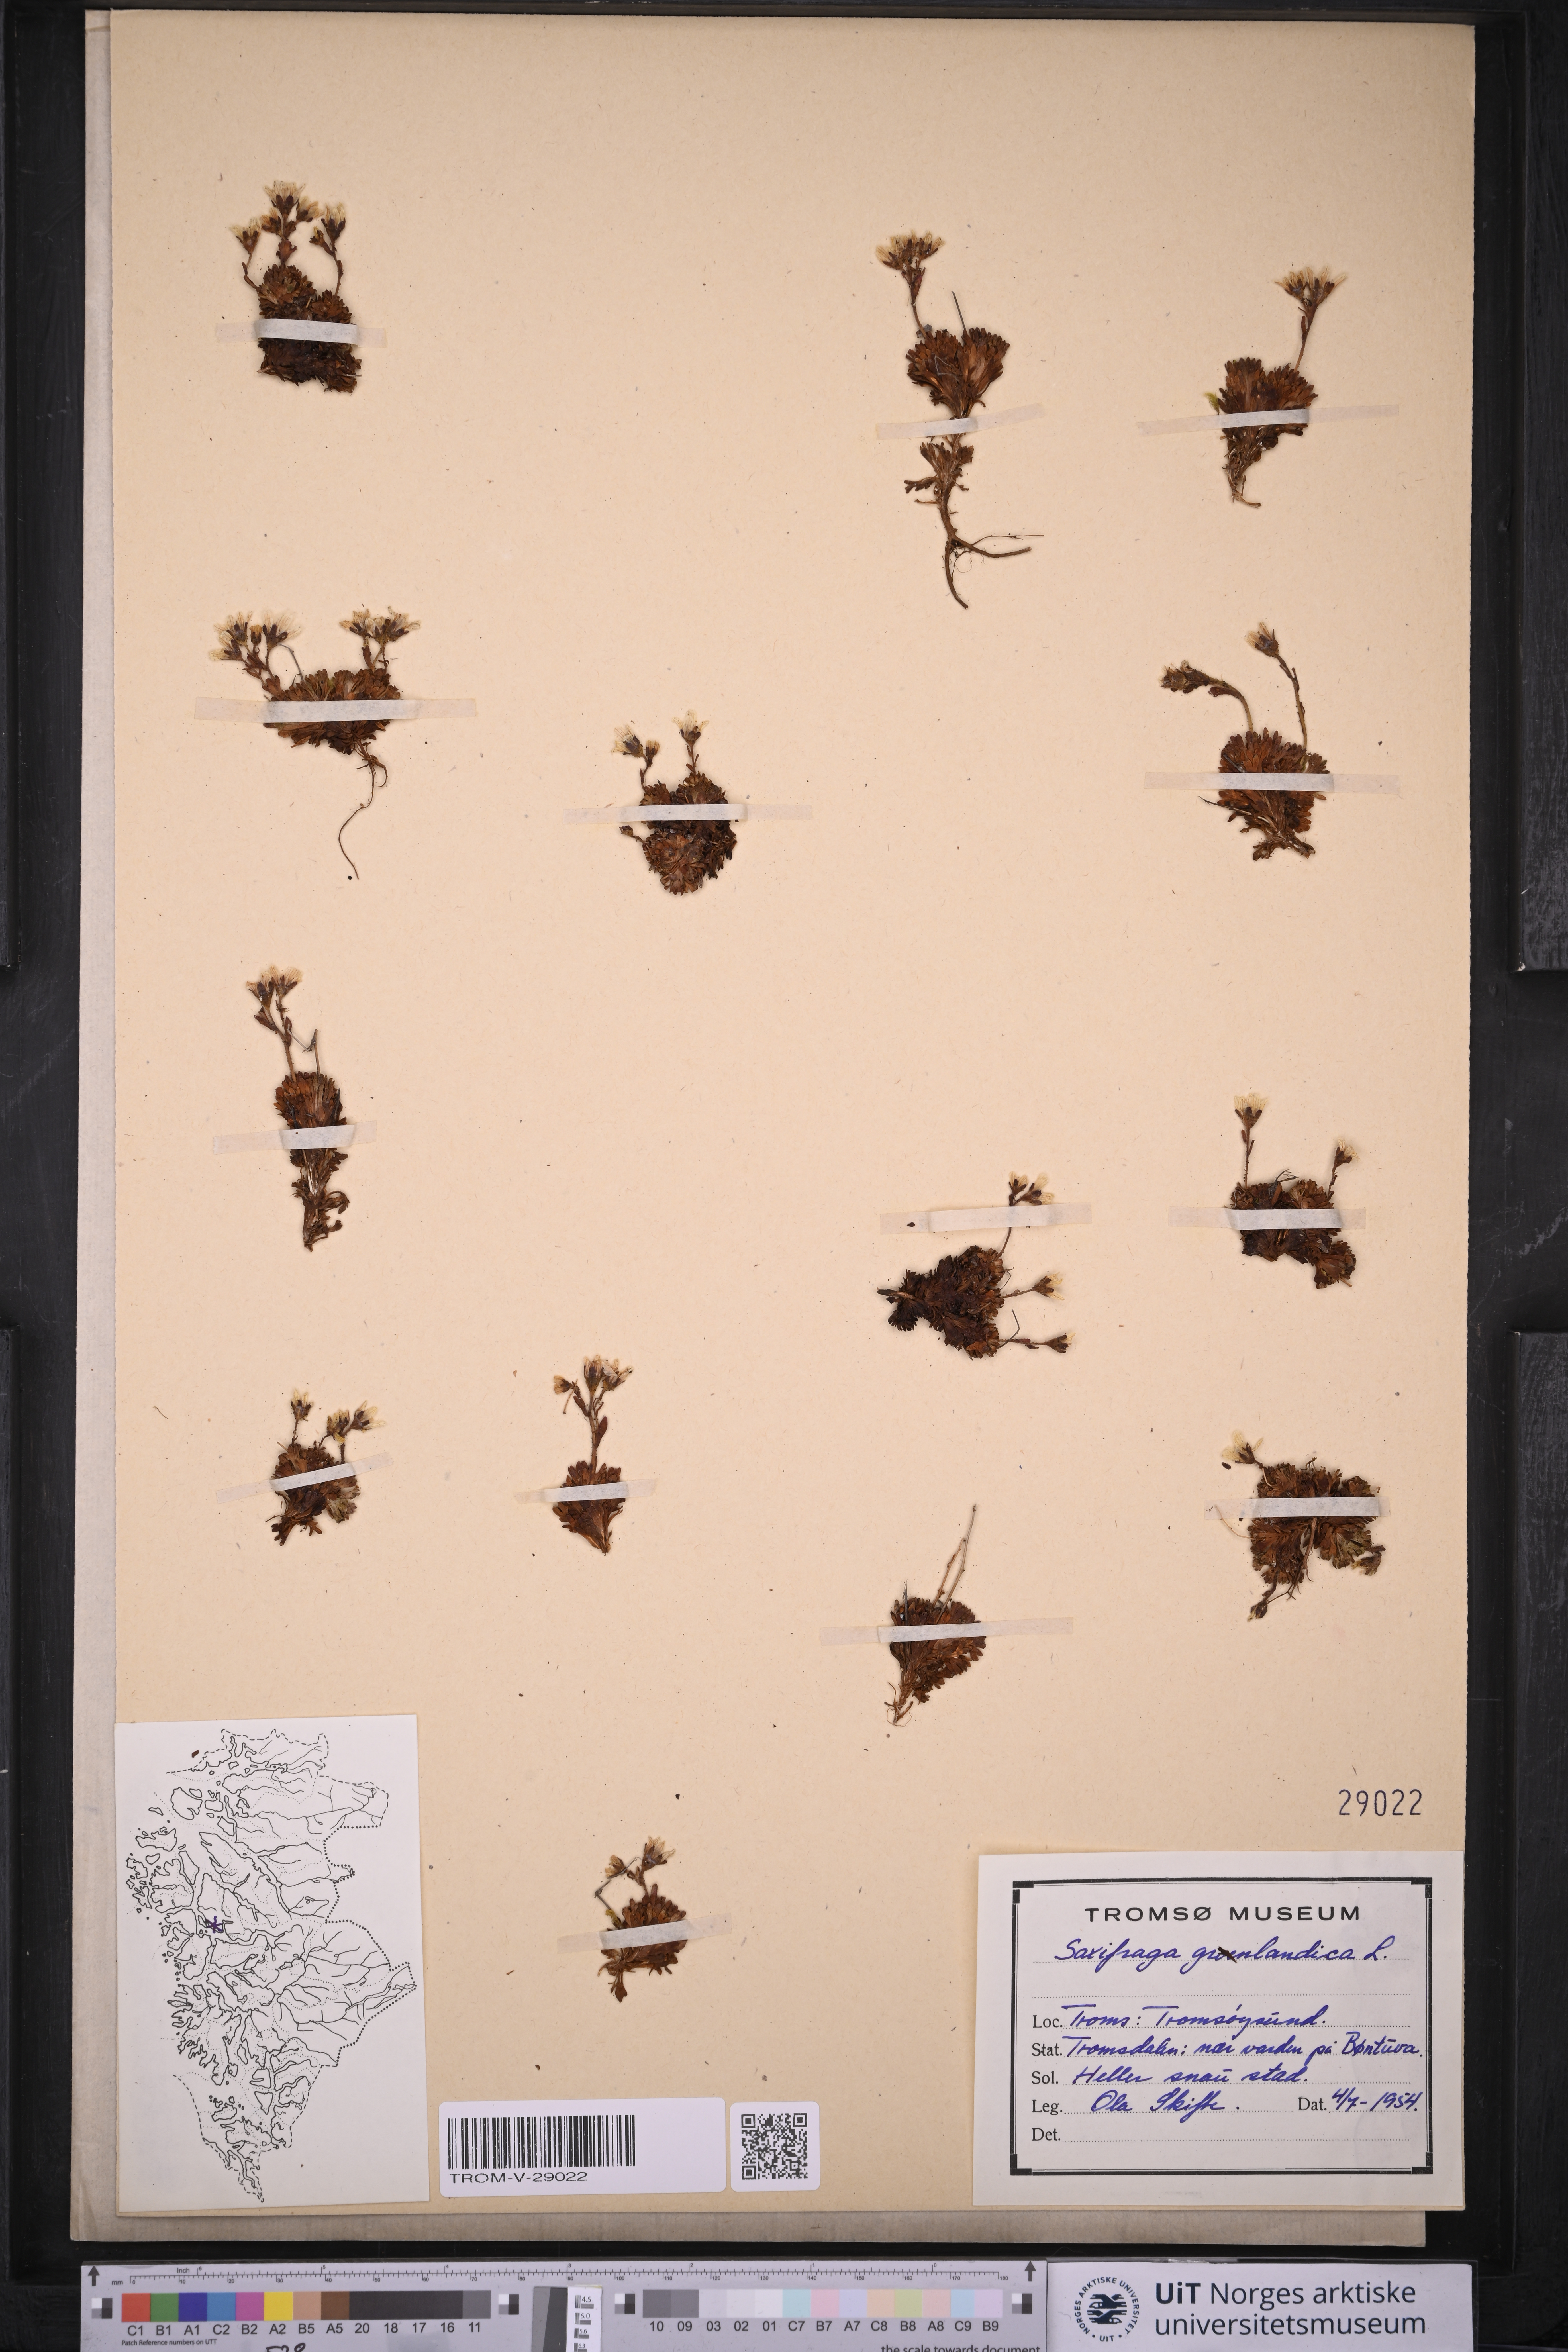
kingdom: Plantae
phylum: Tracheophyta
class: Magnoliopsida
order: Saxifragales
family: Saxifragaceae
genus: Saxifraga
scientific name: Saxifraga cespitosa
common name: Tufted saxifrage
